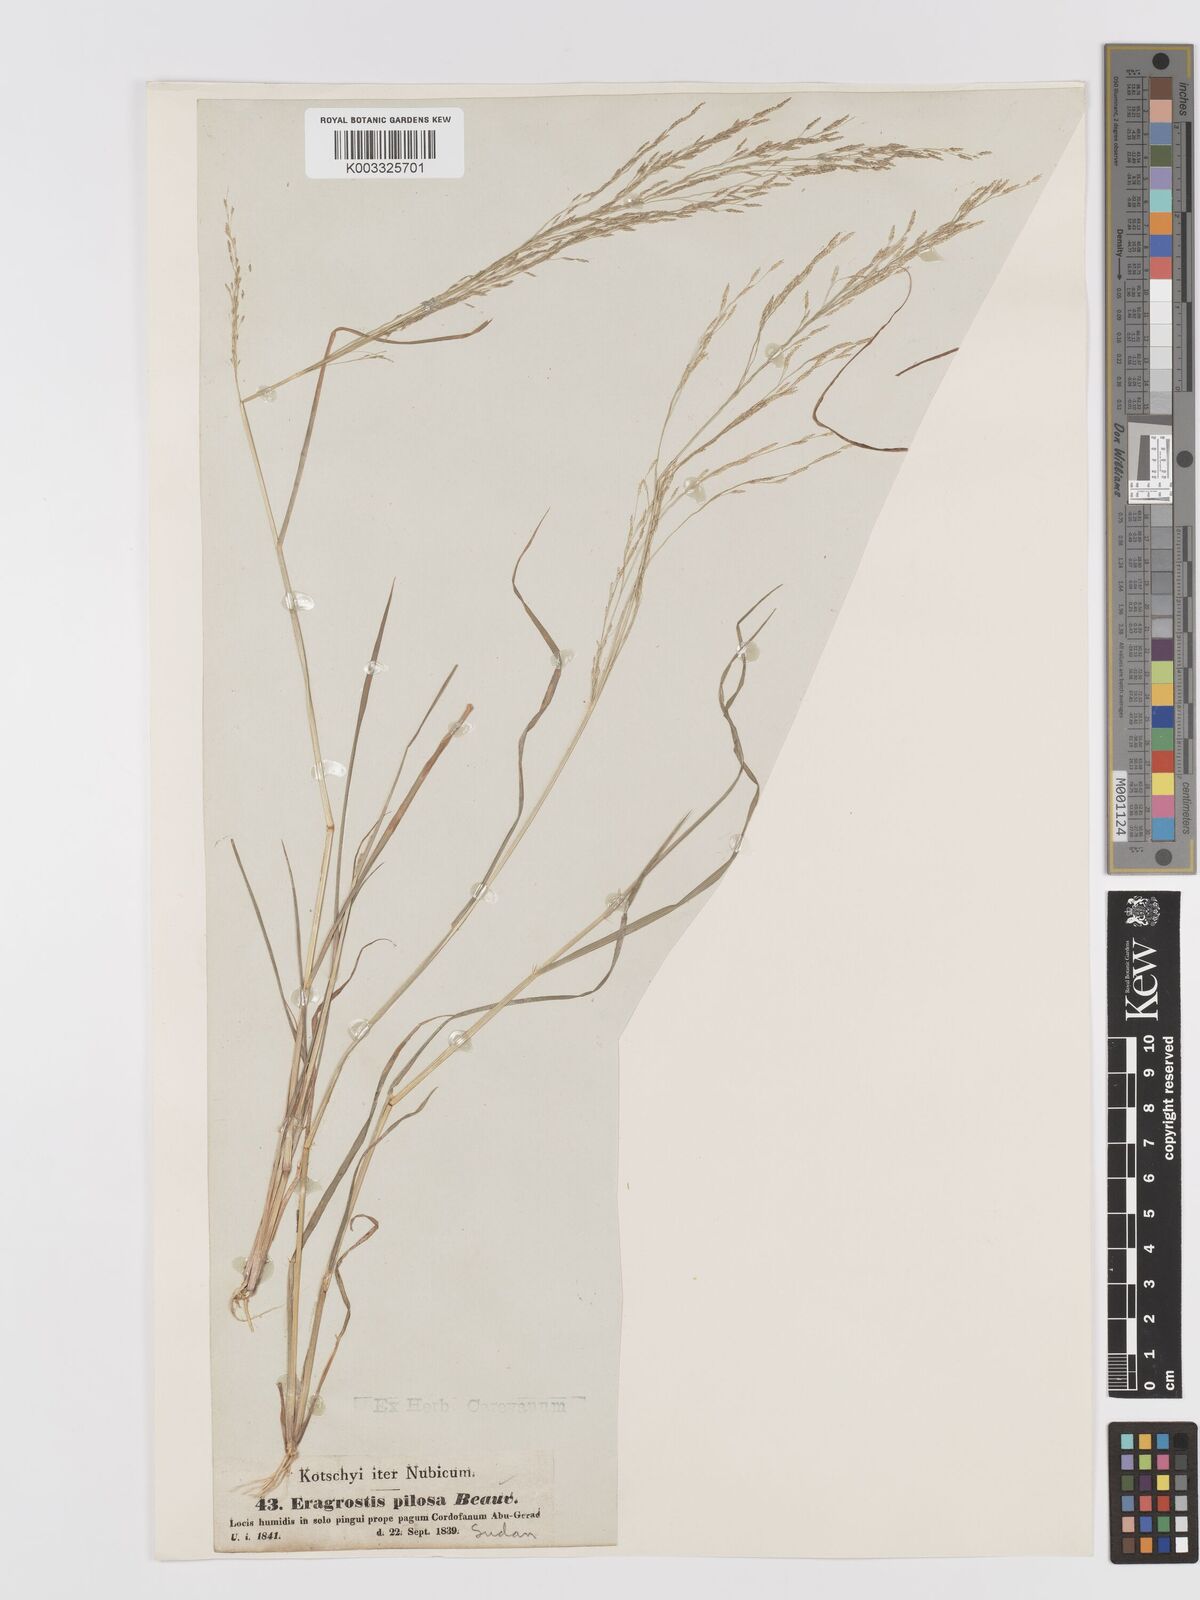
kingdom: Plantae
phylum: Tracheophyta
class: Liliopsida
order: Poales
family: Poaceae
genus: Eragrostis
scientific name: Eragrostis pilosa
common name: Indian lovegrass
